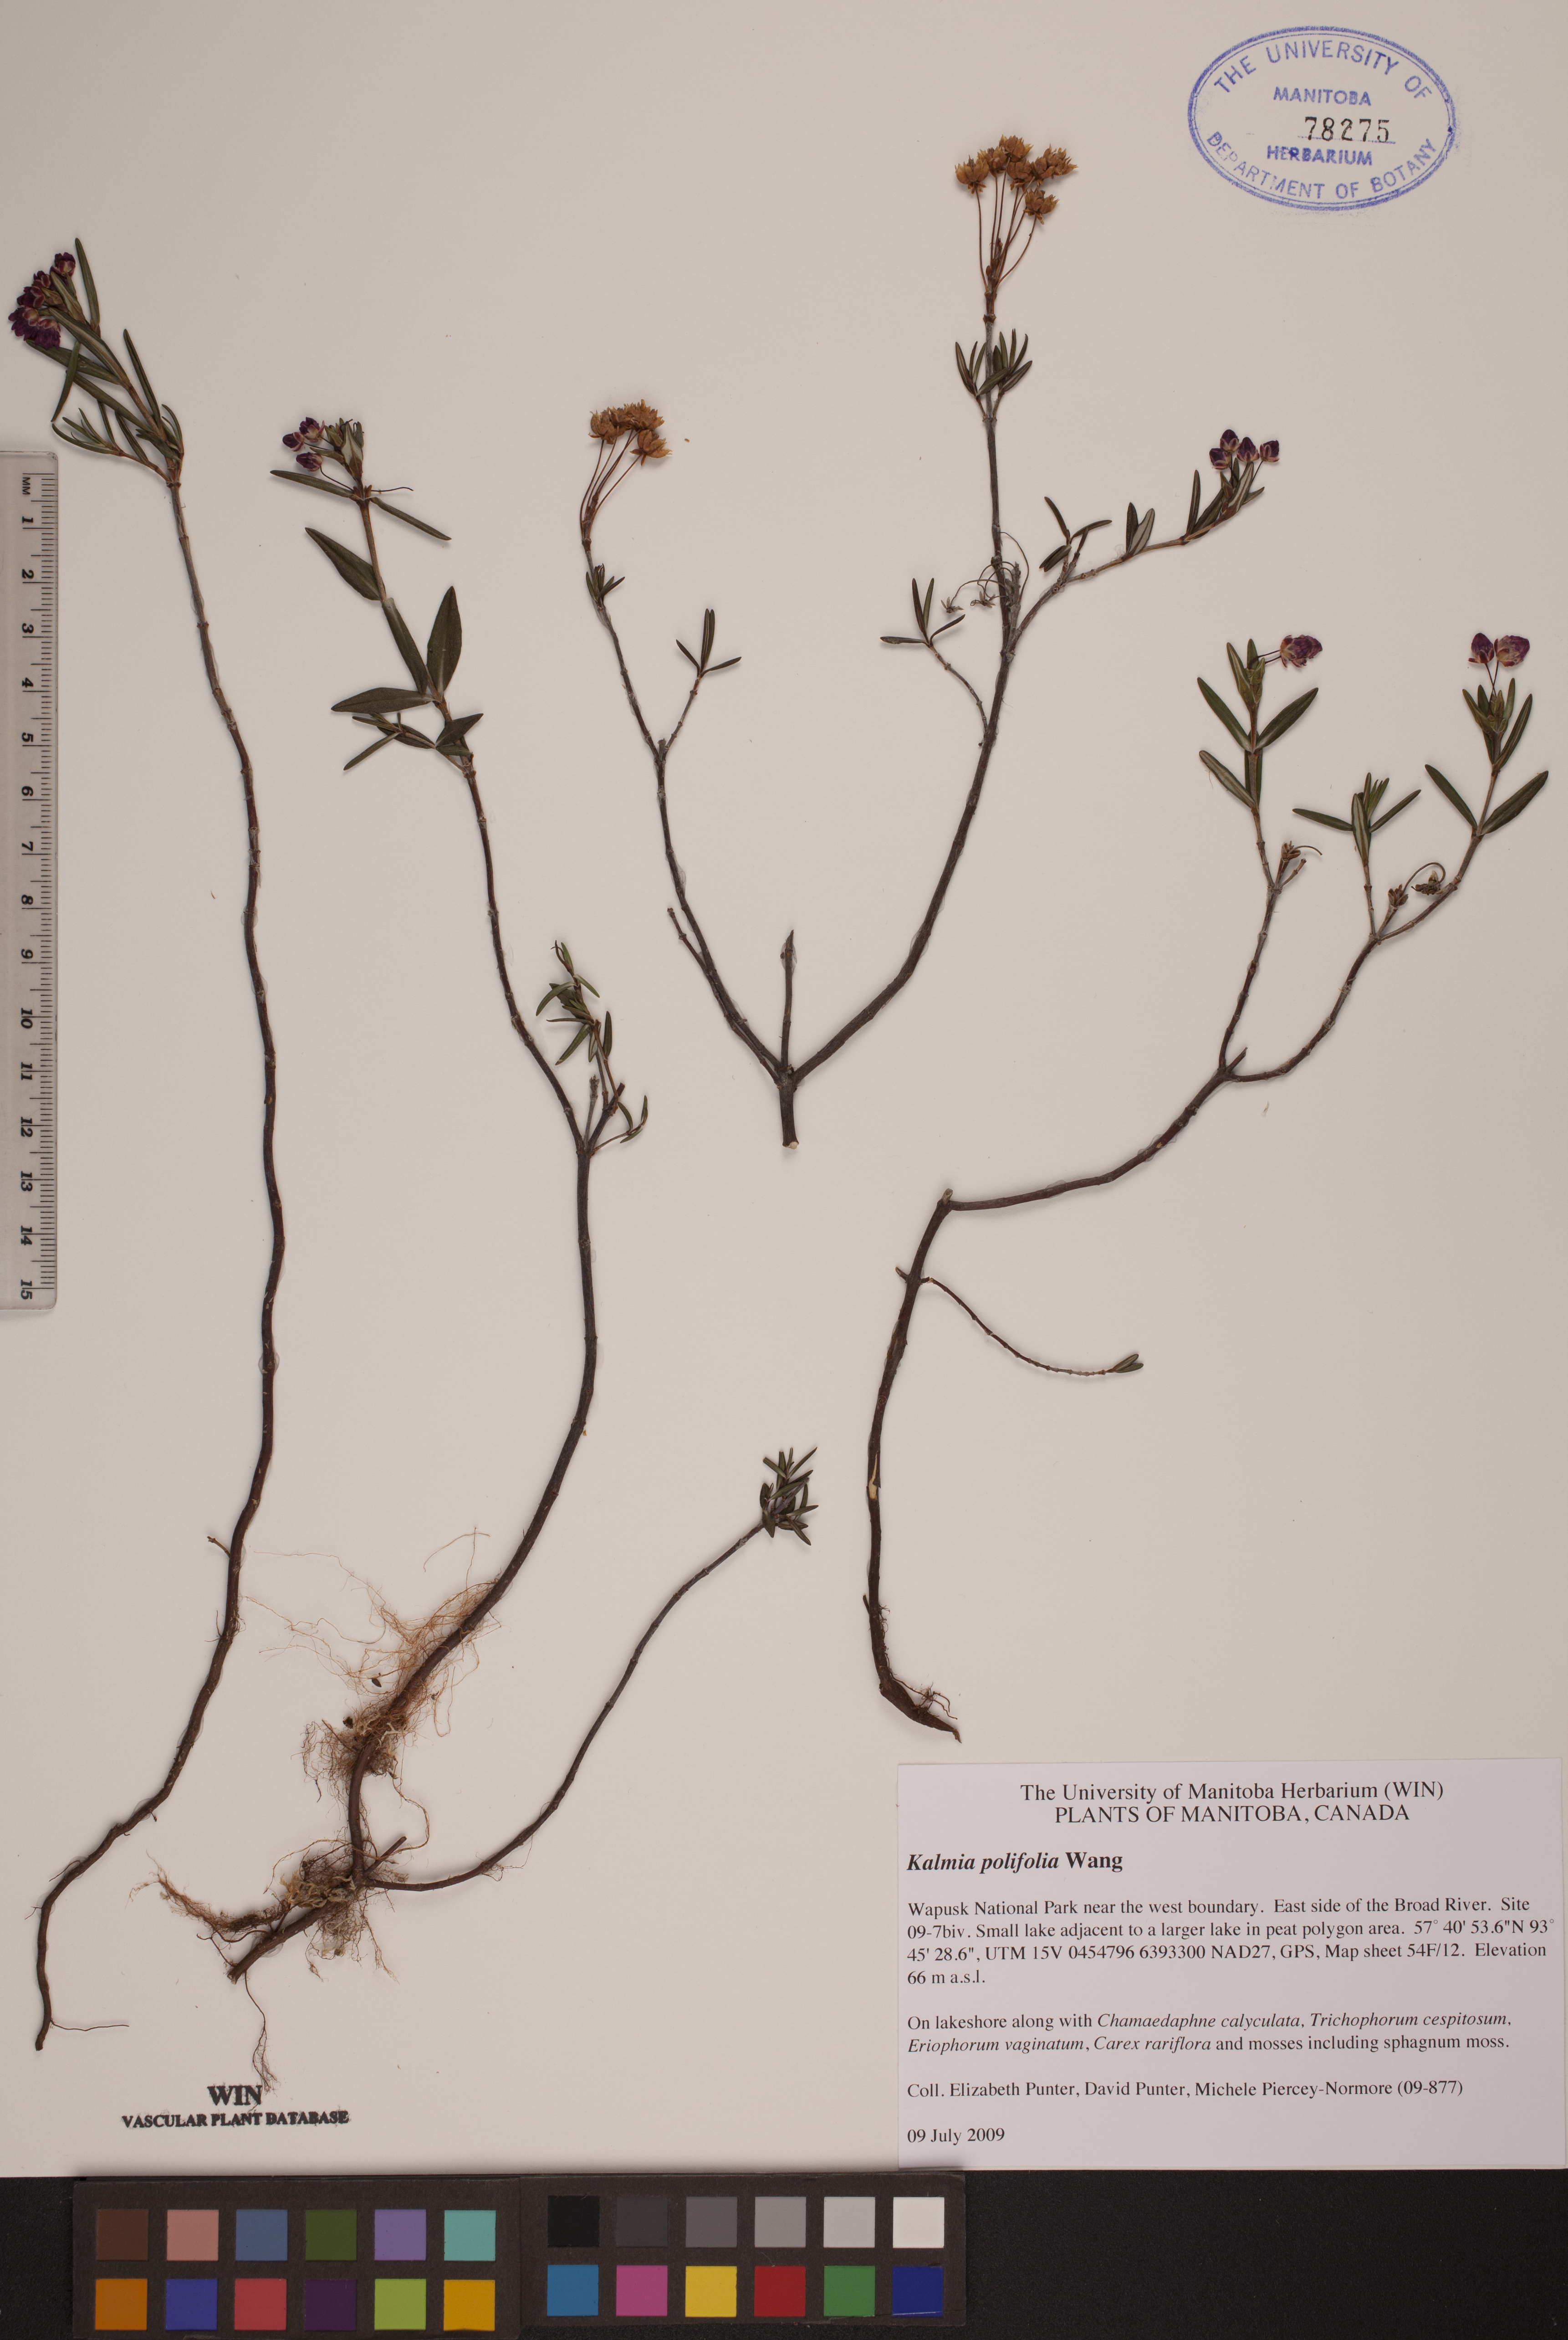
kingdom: Plantae
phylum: Tracheophyta
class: Magnoliopsida
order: Ericales
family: Ericaceae
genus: Kalmia
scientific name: Kalmia polifolia
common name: Bog-laurel
